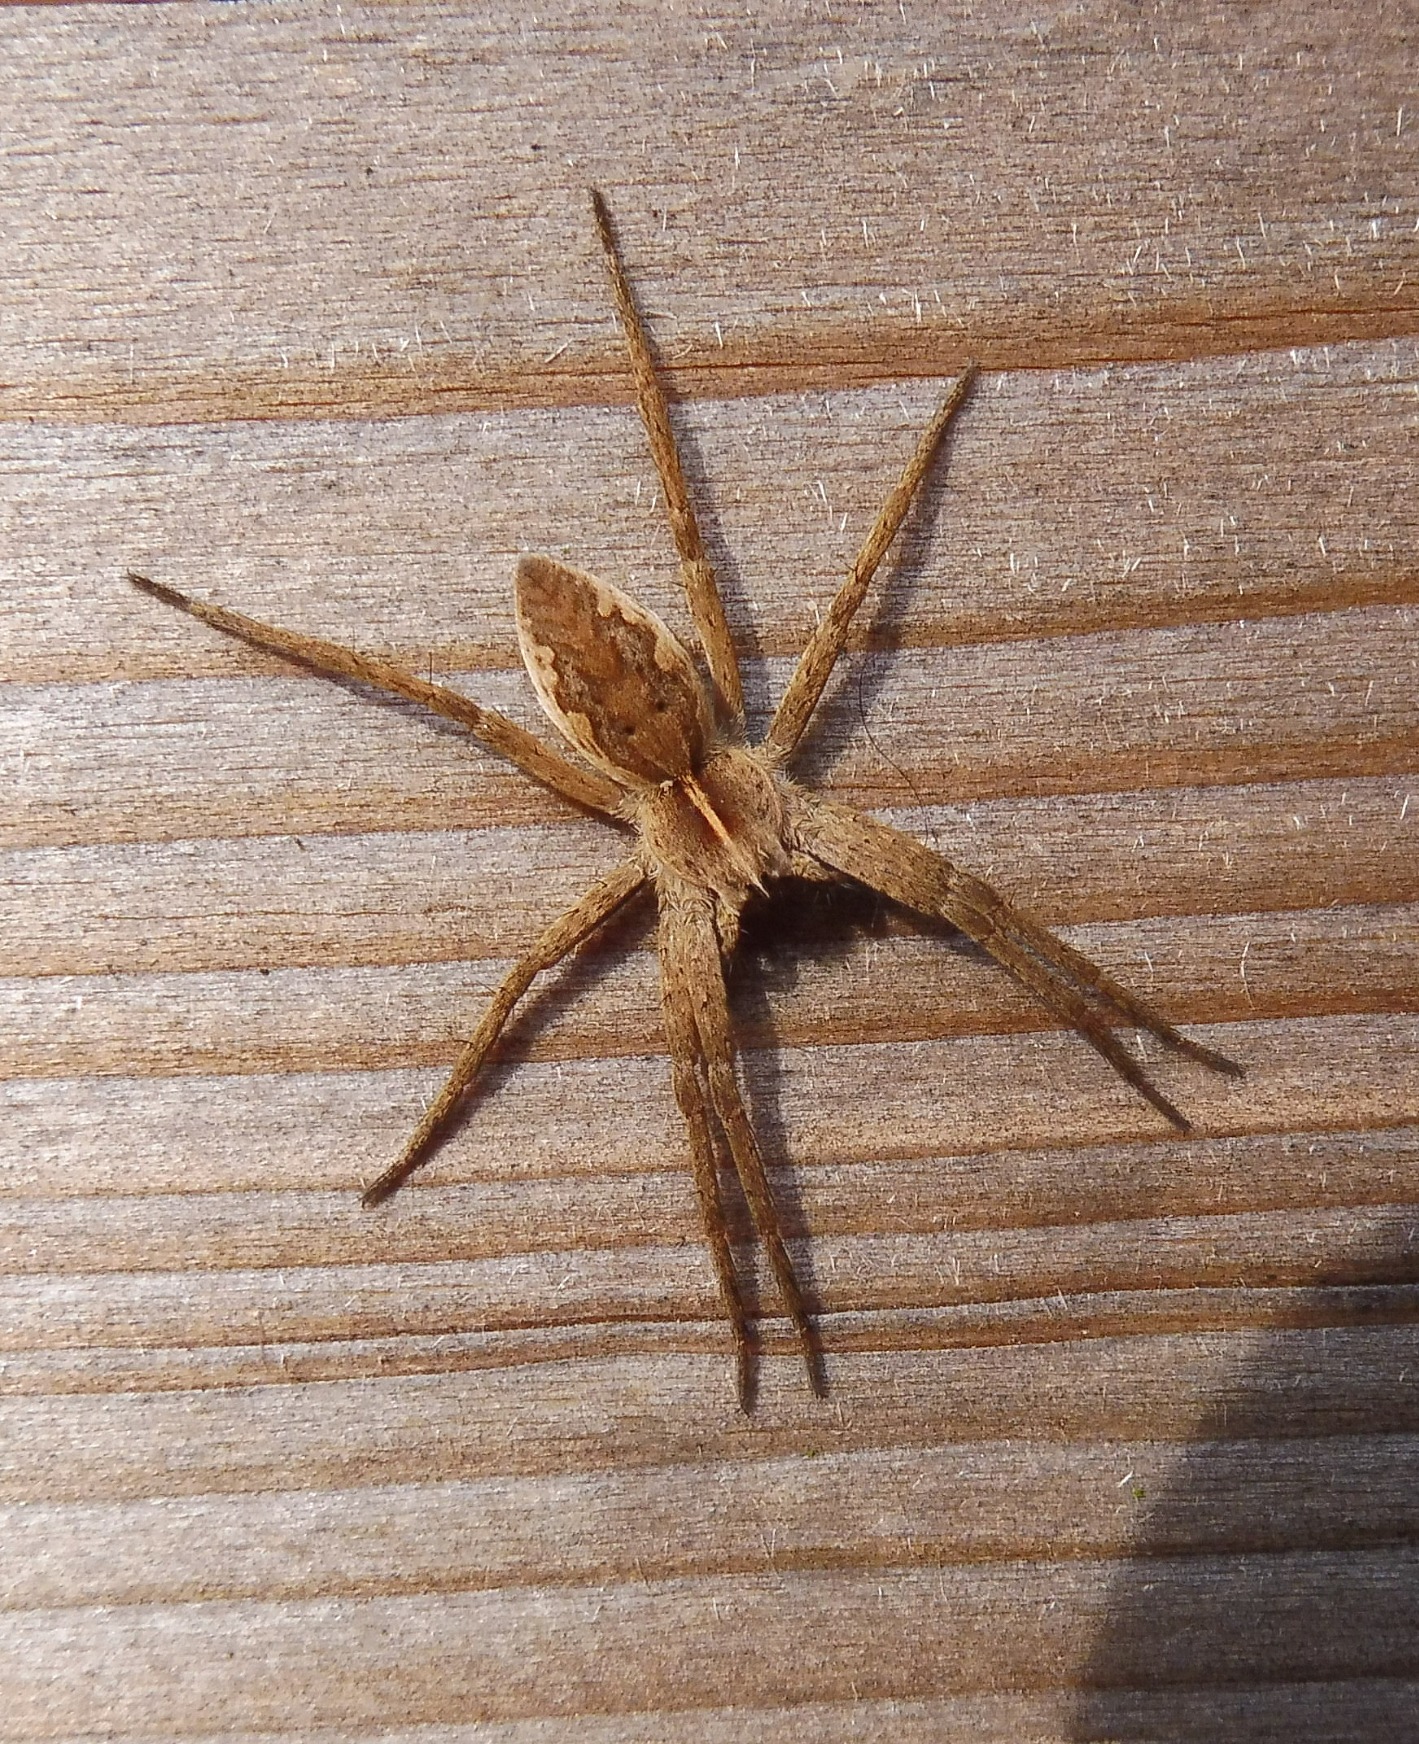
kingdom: Animalia
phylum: Arthropoda
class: Arachnida
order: Araneae
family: Pisauridae
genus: Pisaura
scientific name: Pisaura mirabilis
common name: Almindelig rovedderkop
